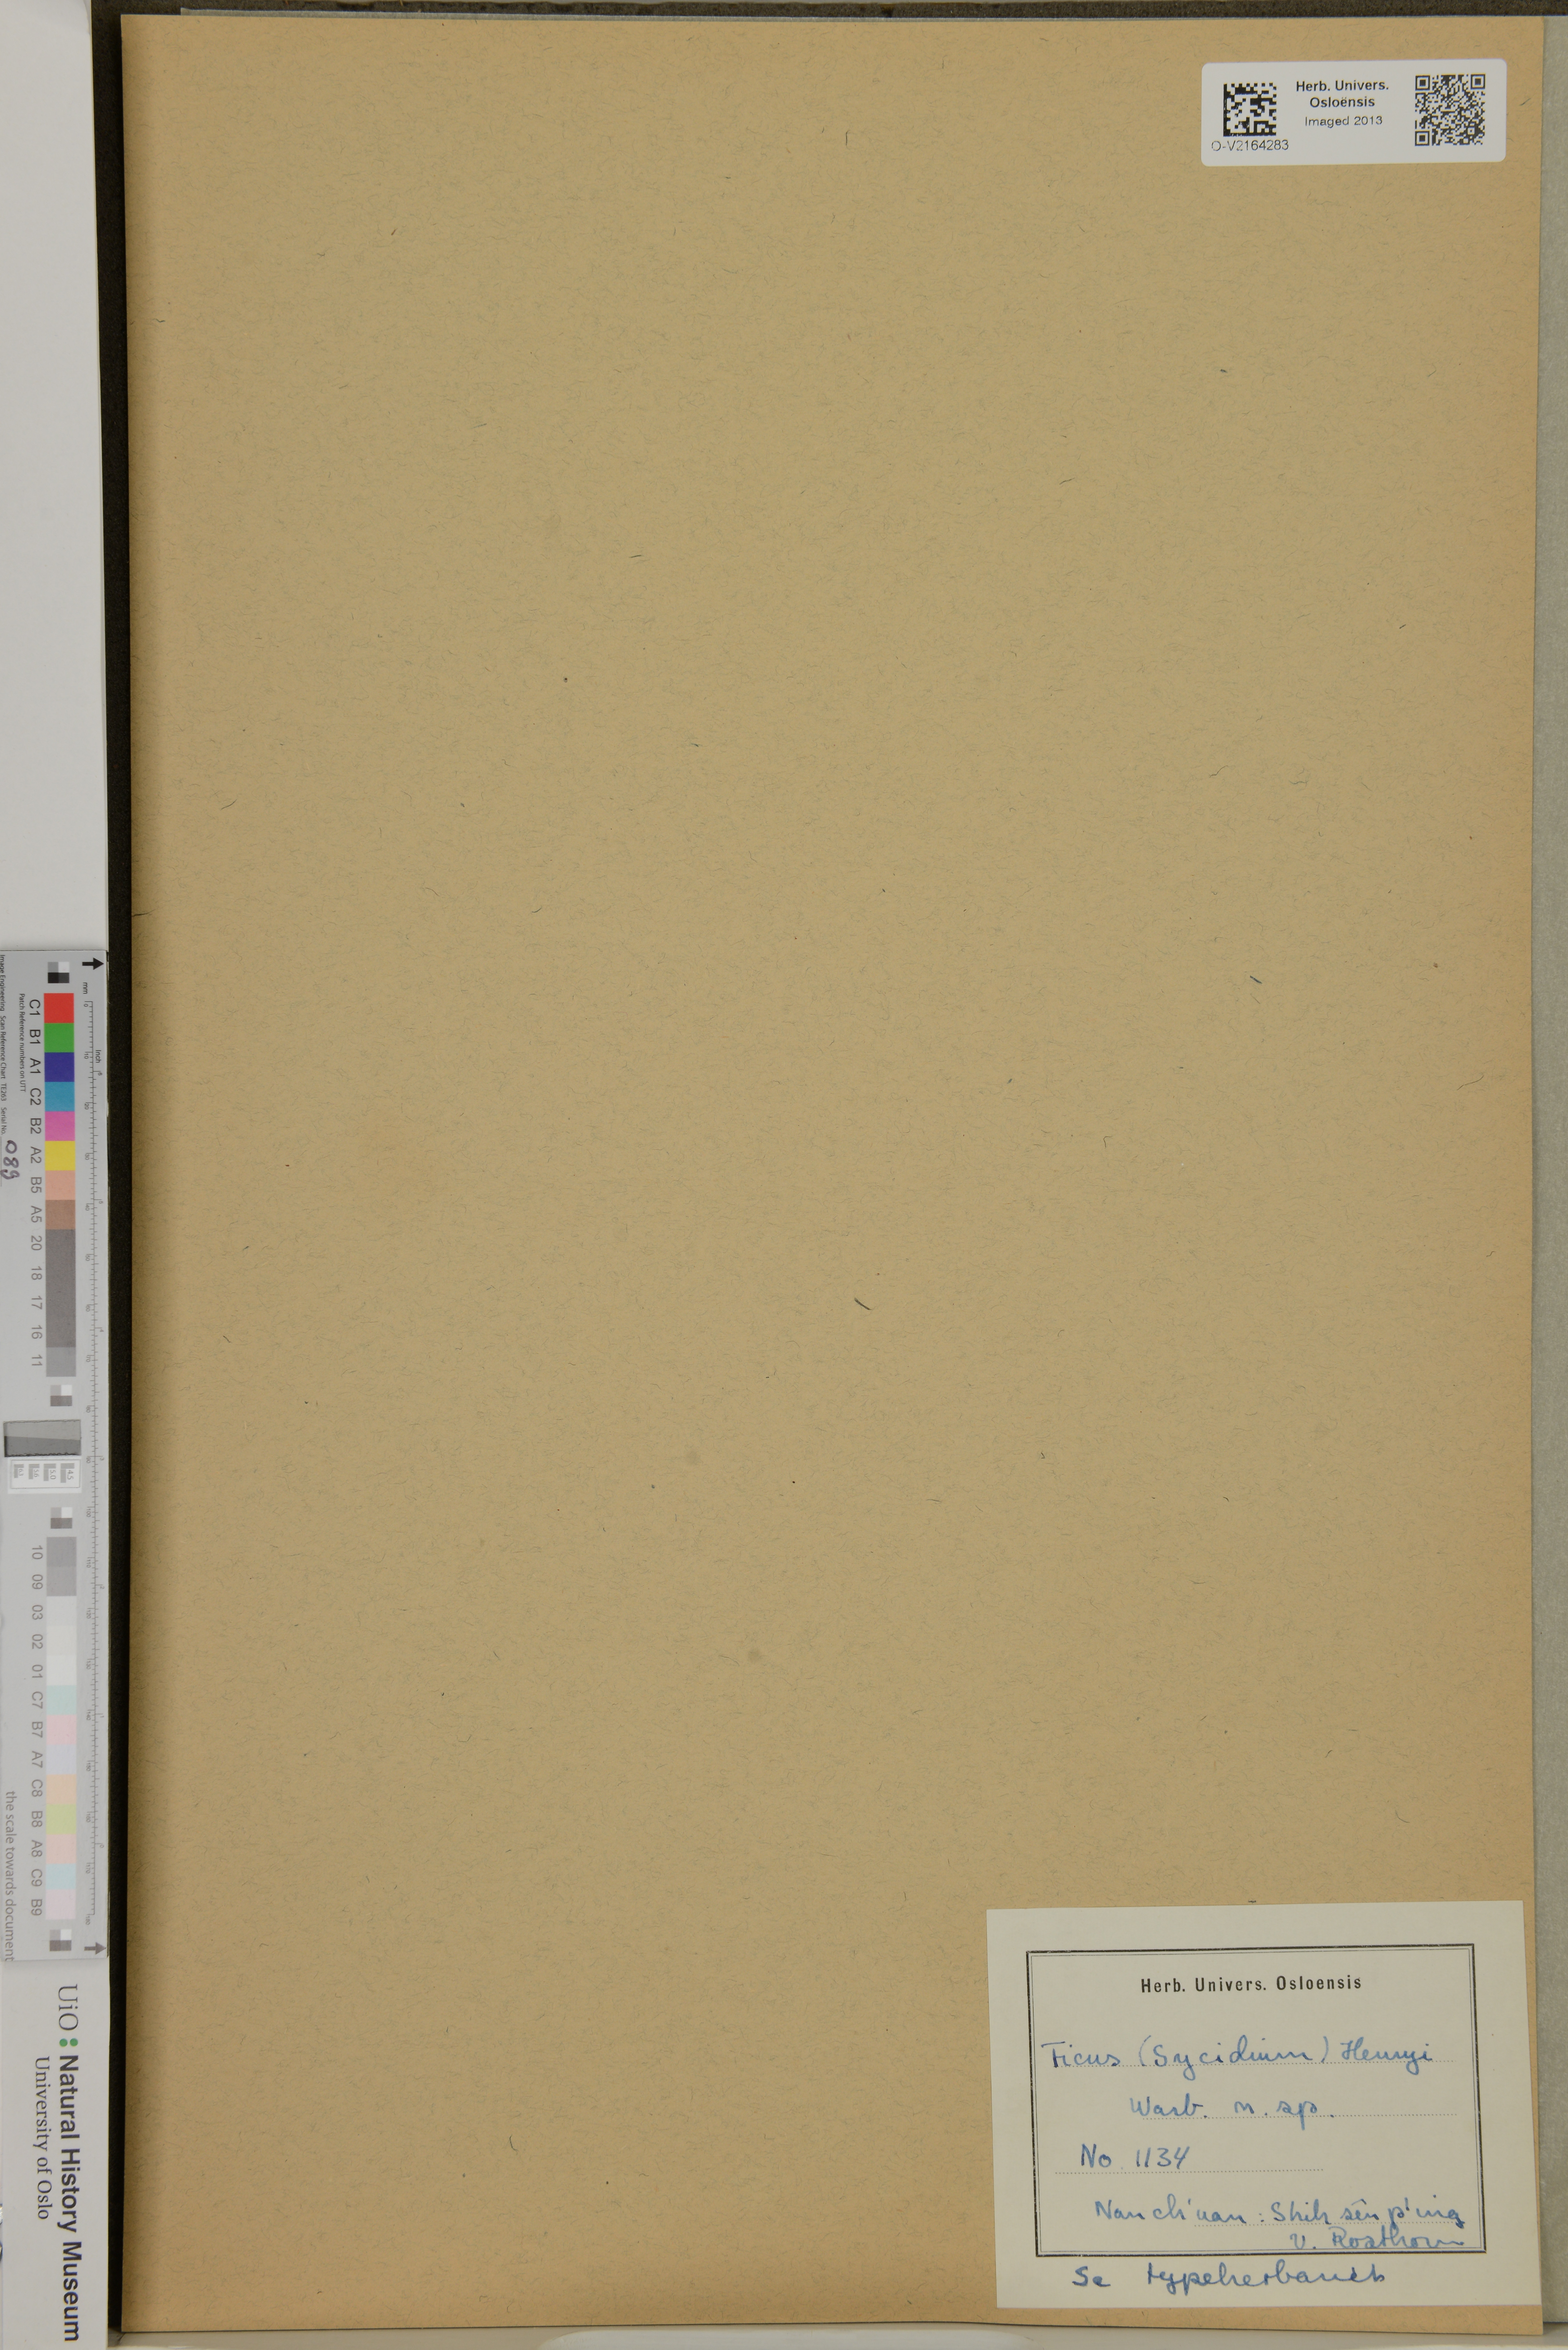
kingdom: Plantae
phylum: Tracheophyta
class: Magnoliopsida
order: Rosales
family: Moraceae
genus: Ficus
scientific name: Ficus henryi
